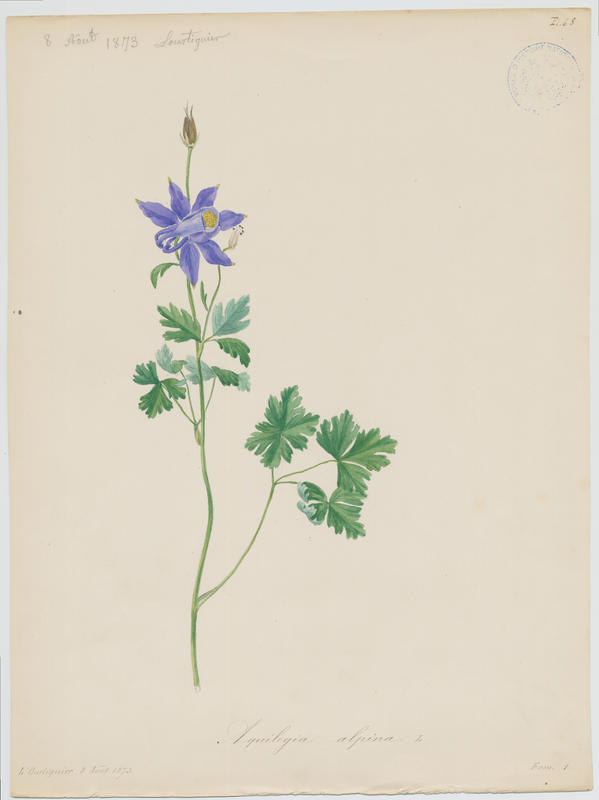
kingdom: Plantae
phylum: Tracheophyta
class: Magnoliopsida
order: Ranunculales
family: Ranunculaceae
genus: Aquilegia
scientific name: Aquilegia alpina
